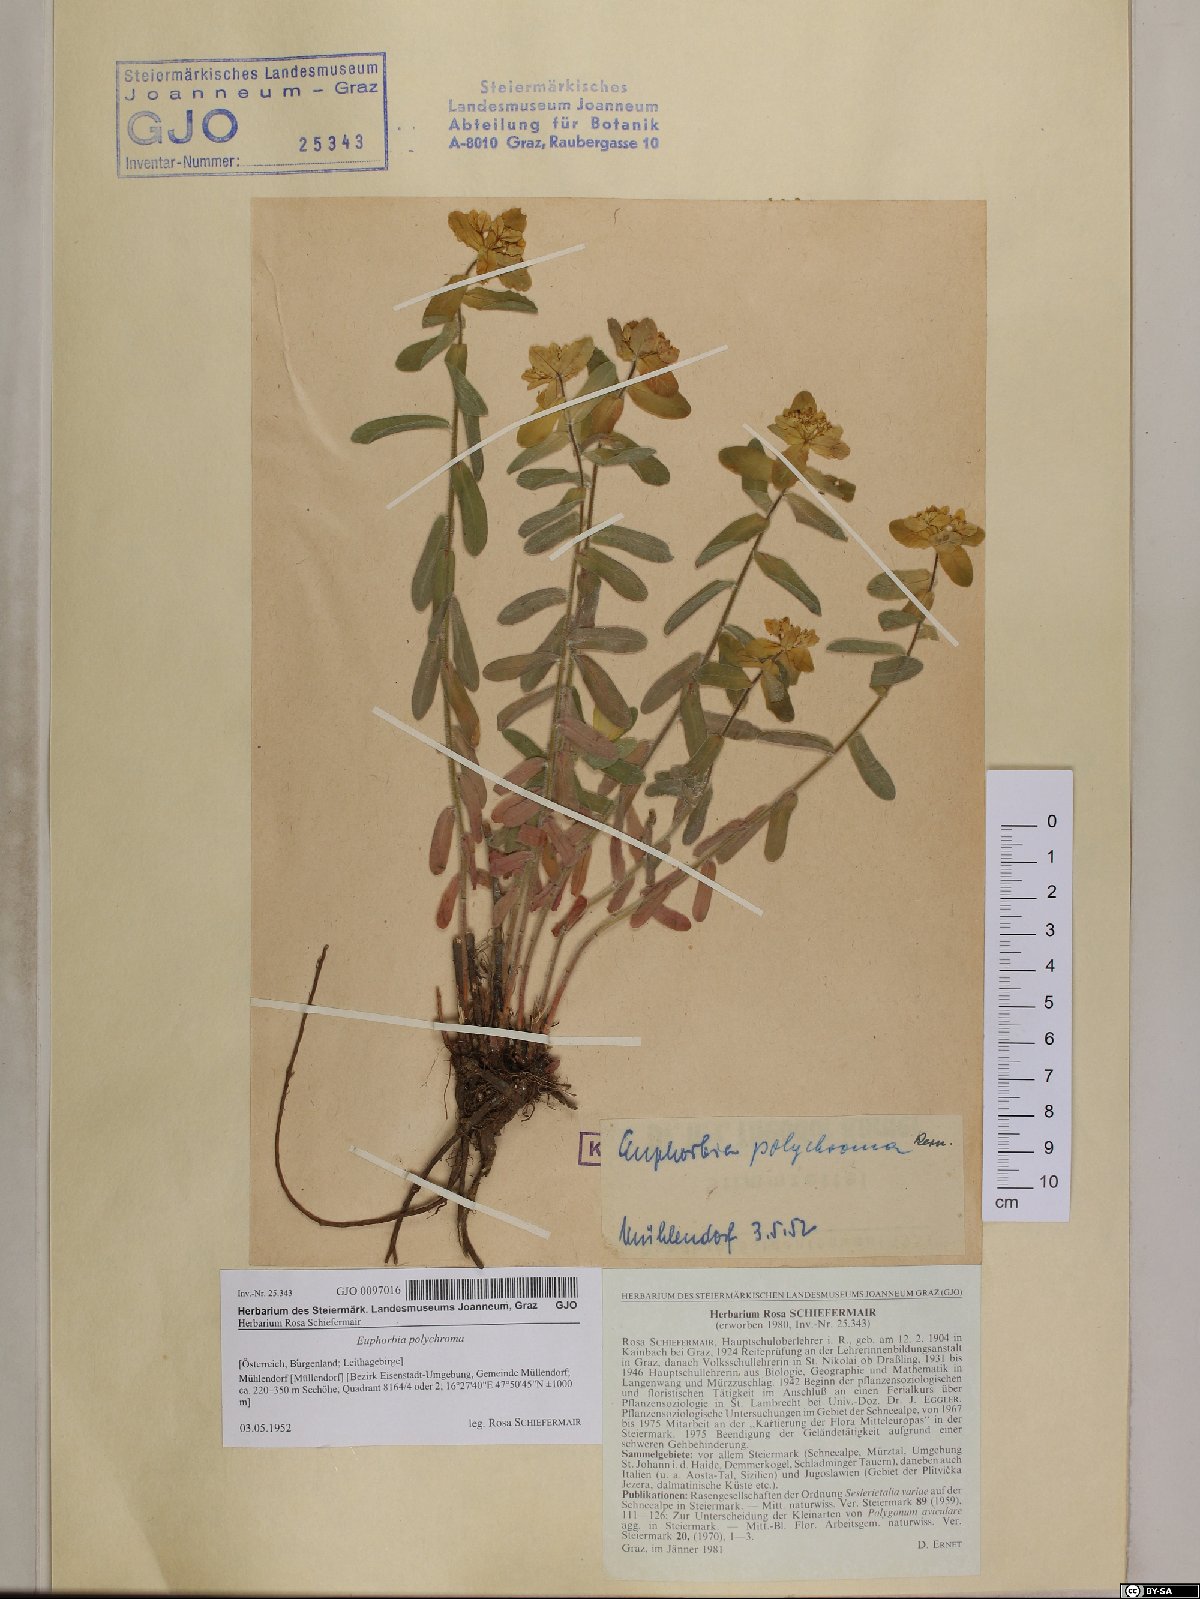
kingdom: Plantae
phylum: Tracheophyta
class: Magnoliopsida
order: Malpighiales
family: Euphorbiaceae
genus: Euphorbia
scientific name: Euphorbia epithymoides
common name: Cushion spurge
